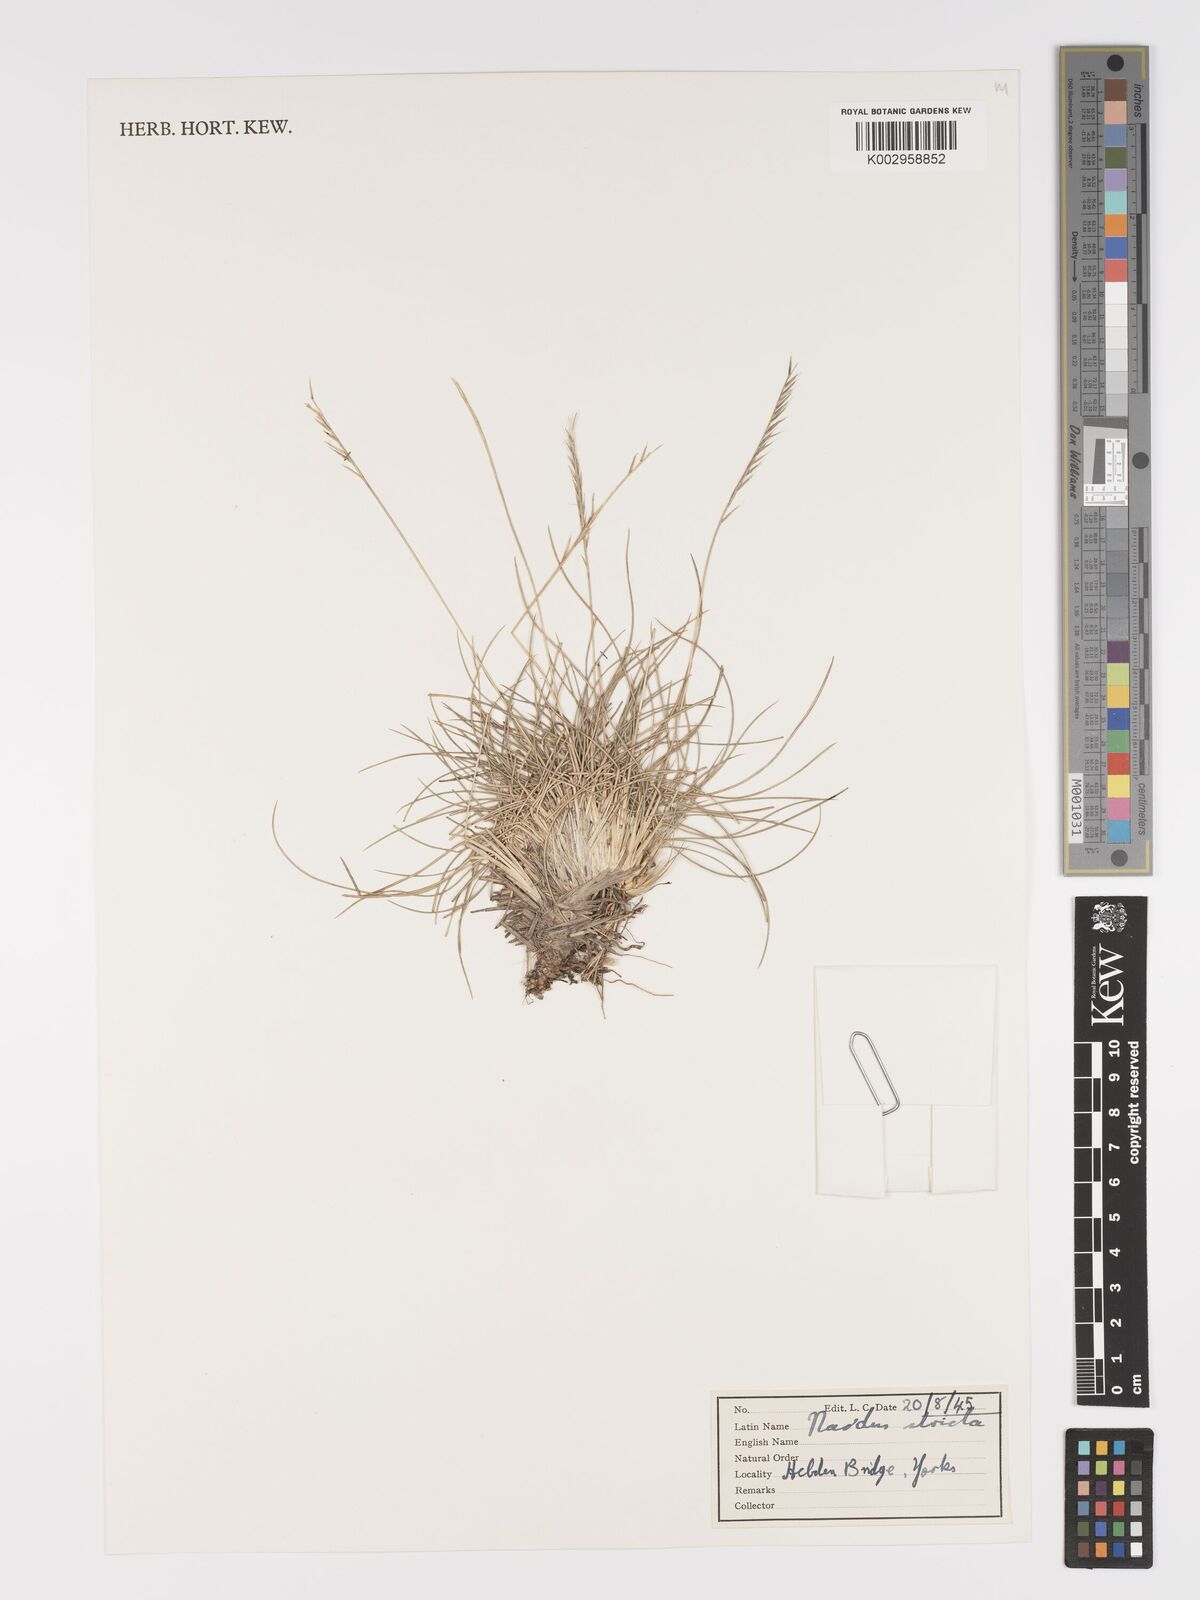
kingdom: Plantae
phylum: Tracheophyta
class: Liliopsida
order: Poales
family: Poaceae
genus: Nardus
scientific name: Nardus stricta
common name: Mat-grass
